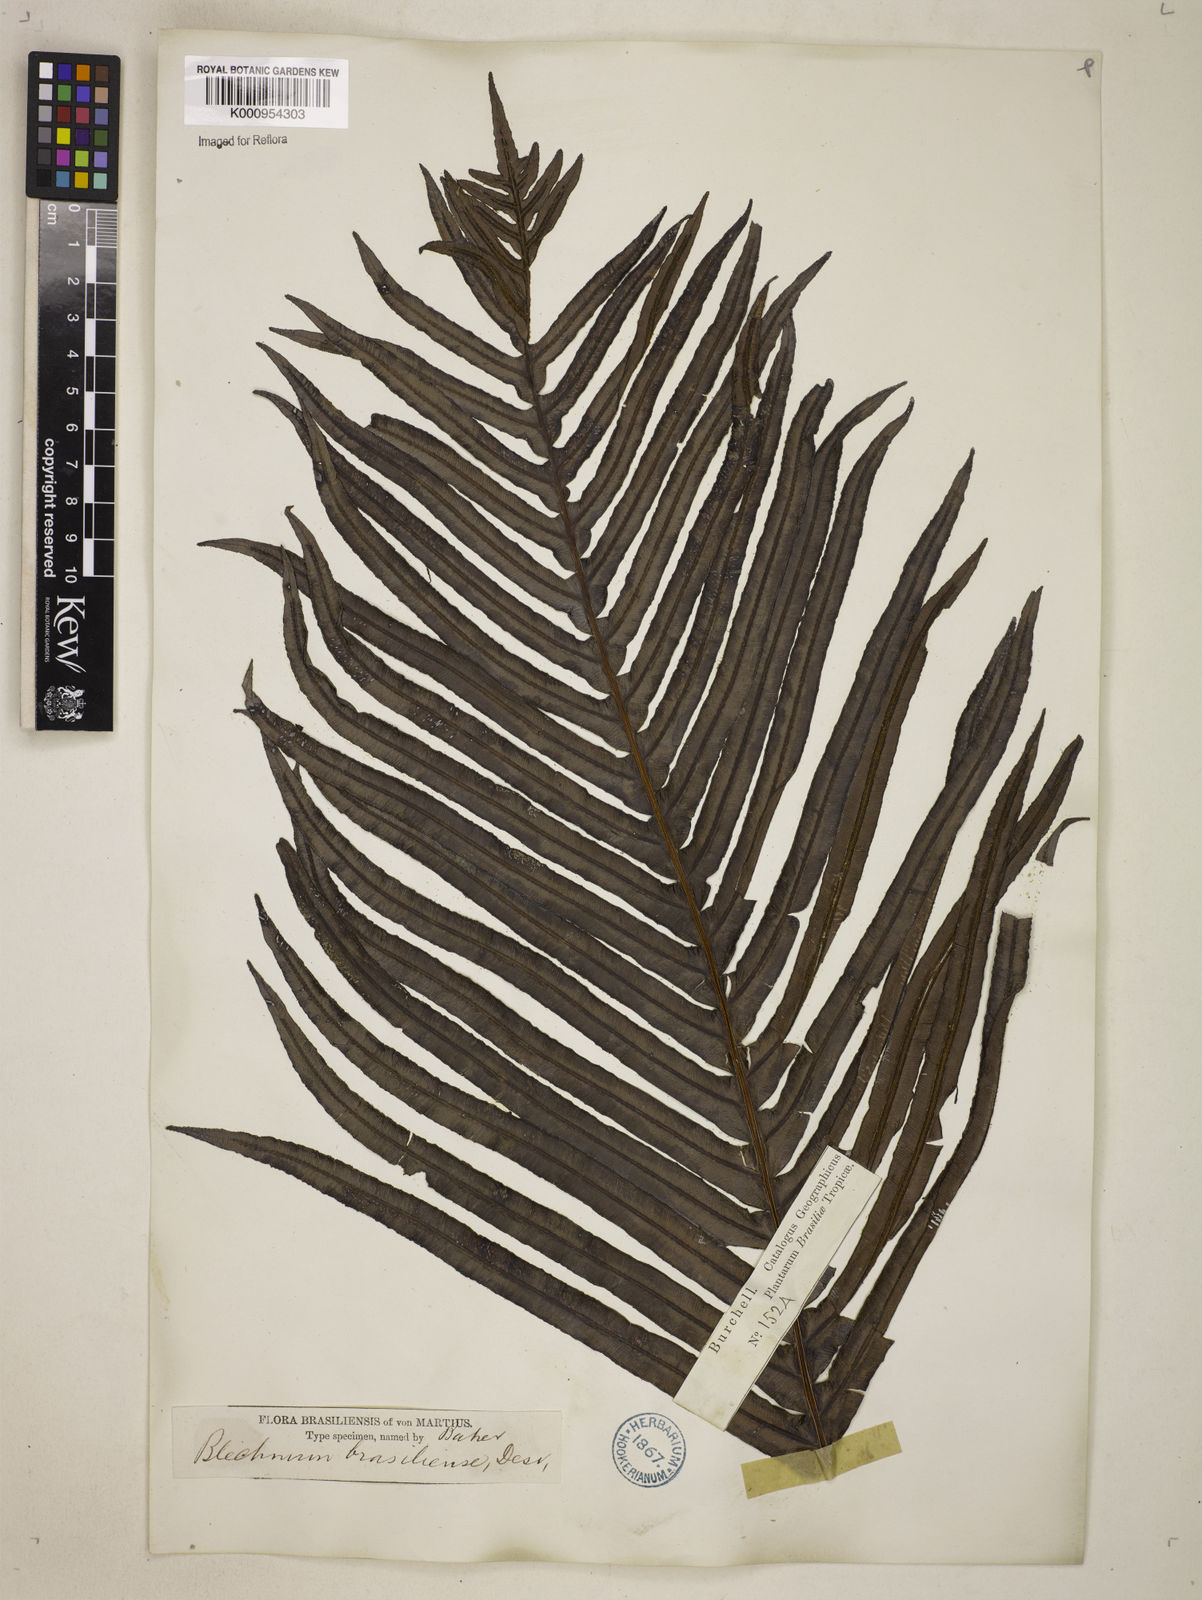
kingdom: Plantae
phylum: Tracheophyta
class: Polypodiopsida
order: Polypodiales
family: Blechnaceae
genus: Neoblechnum
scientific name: Neoblechnum brasiliense
